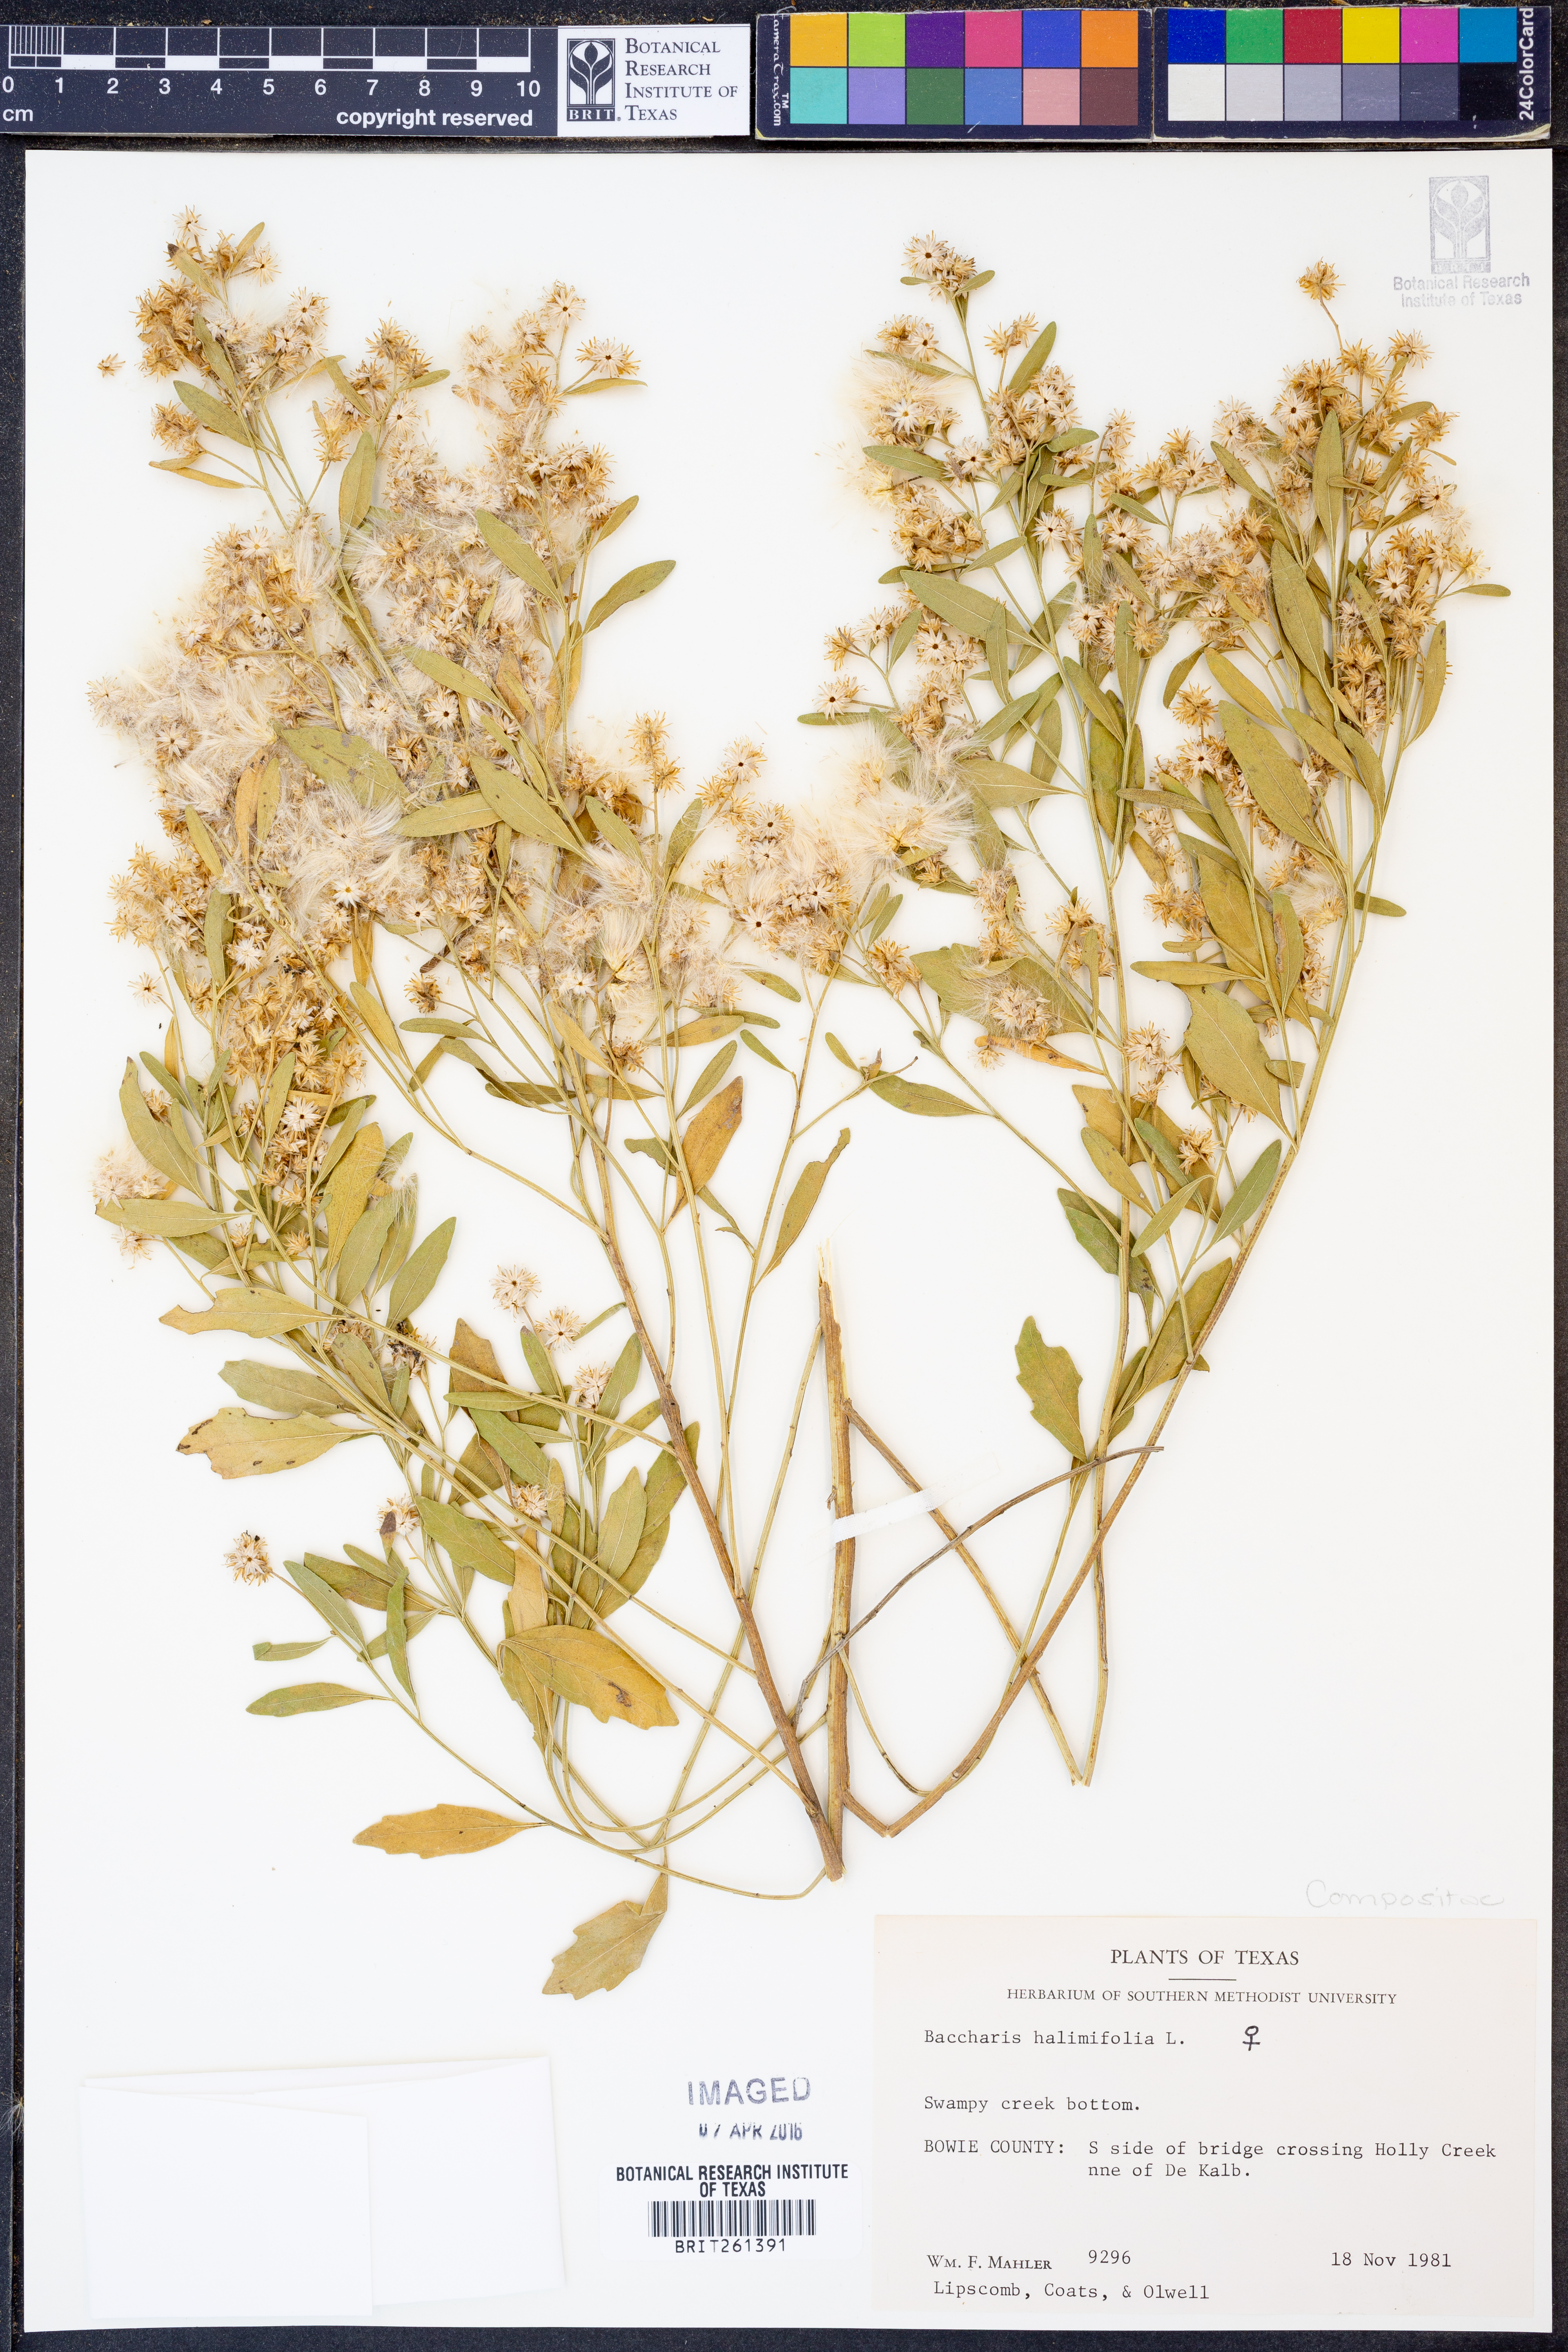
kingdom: Plantae
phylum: Tracheophyta
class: Magnoliopsida
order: Asterales
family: Asteraceae
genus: Nidorella
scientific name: Nidorella ivifolia
